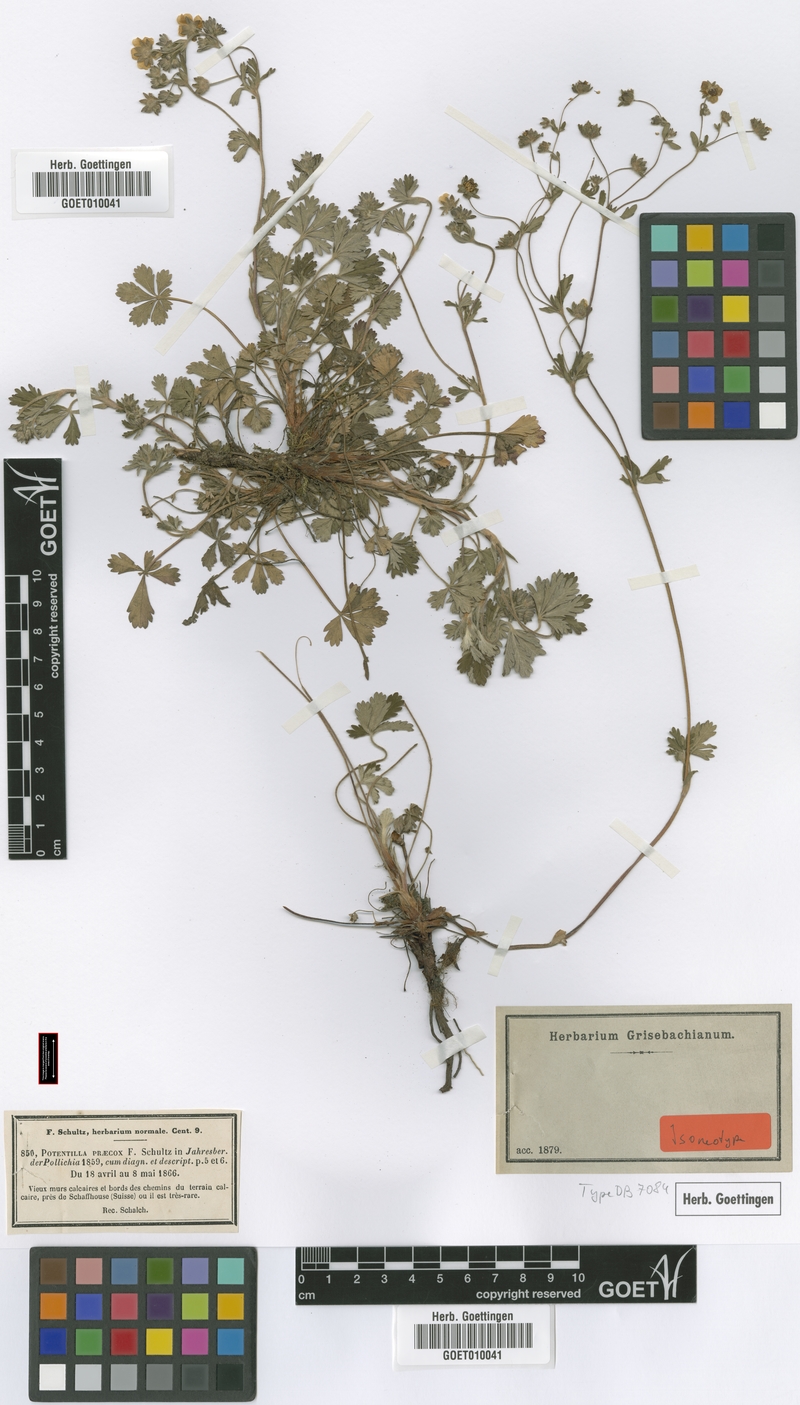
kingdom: Plantae
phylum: Tracheophyta
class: Magnoliopsida
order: Rosales
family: Rosaceae
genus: Potentilla
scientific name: Potentilla praecox
